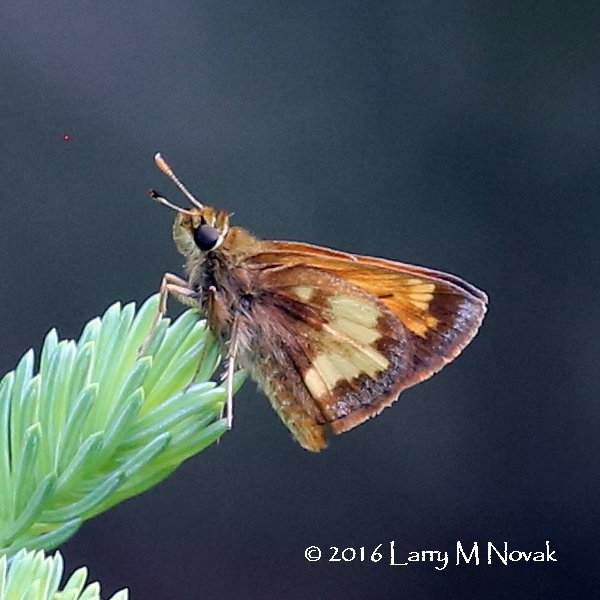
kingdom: Animalia
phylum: Arthropoda
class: Insecta
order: Lepidoptera
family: Hesperiidae
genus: Lon
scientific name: Lon hobomok
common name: Hobomok Skipper
